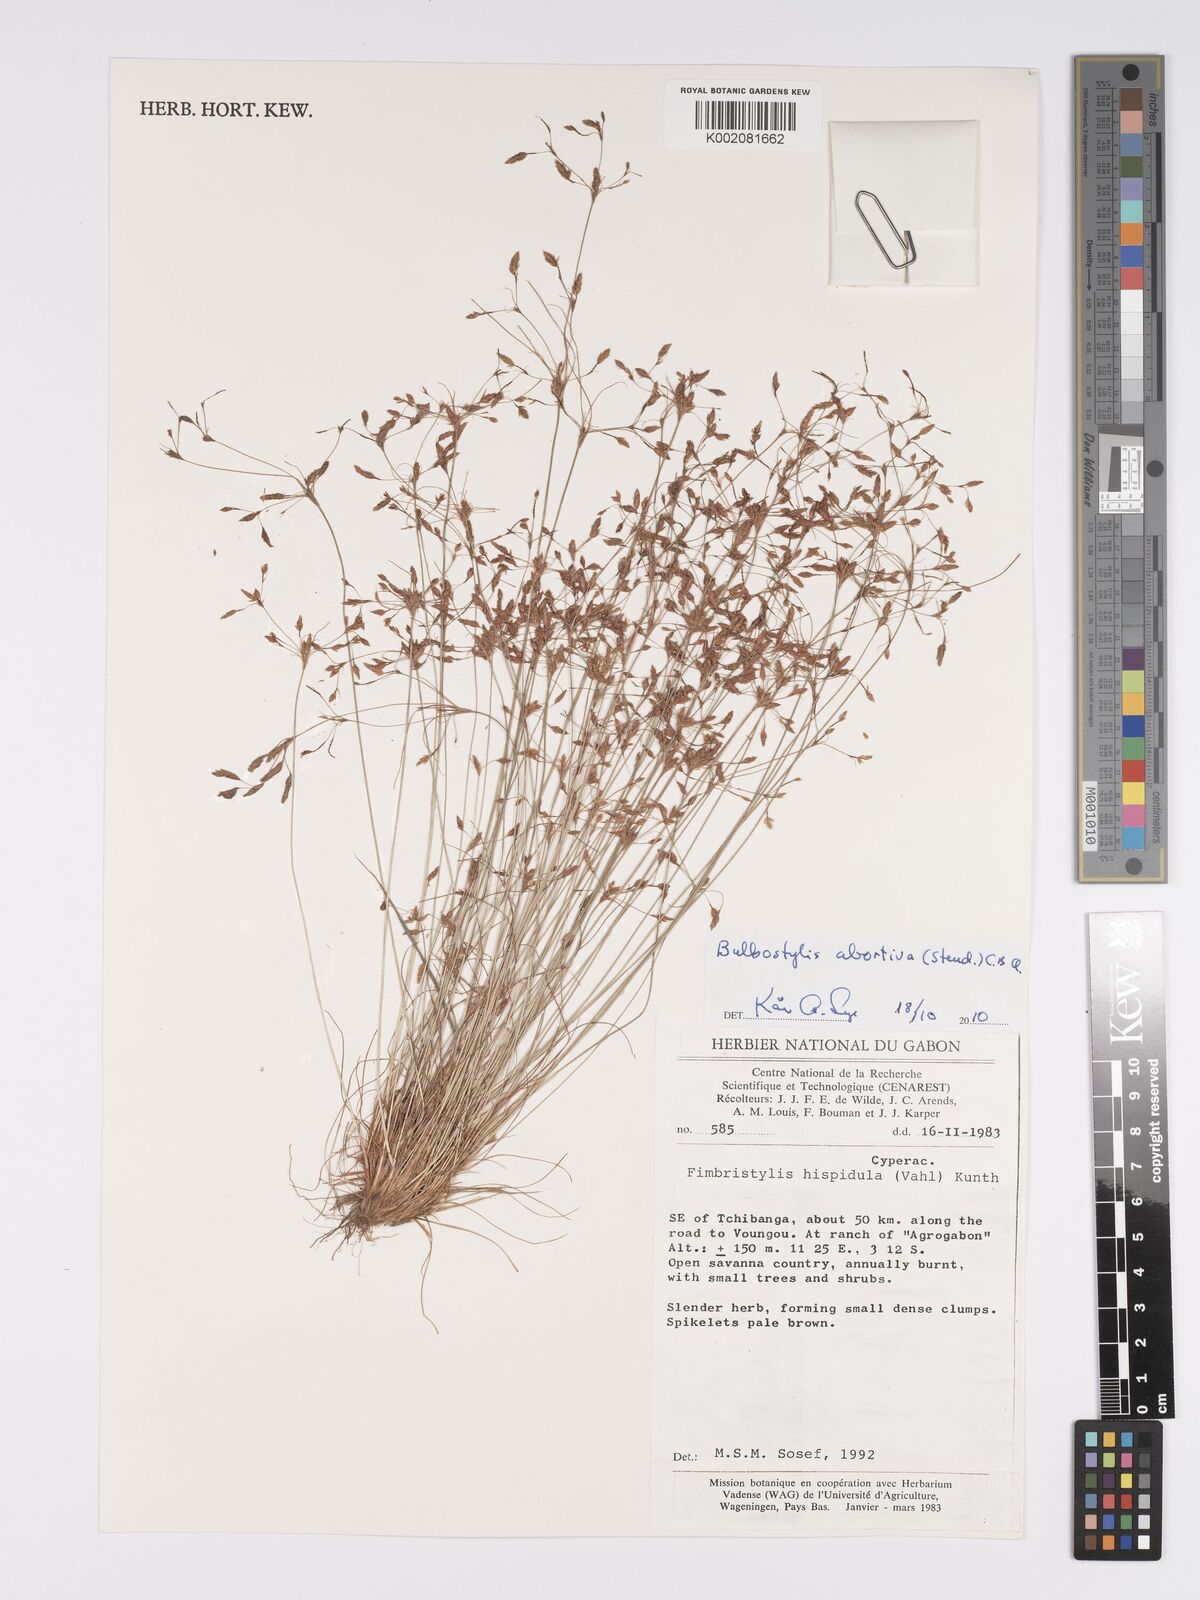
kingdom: Plantae
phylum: Tracheophyta
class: Liliopsida
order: Poales
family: Cyperaceae
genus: Bulbostylis
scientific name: Bulbostylis abortiva
